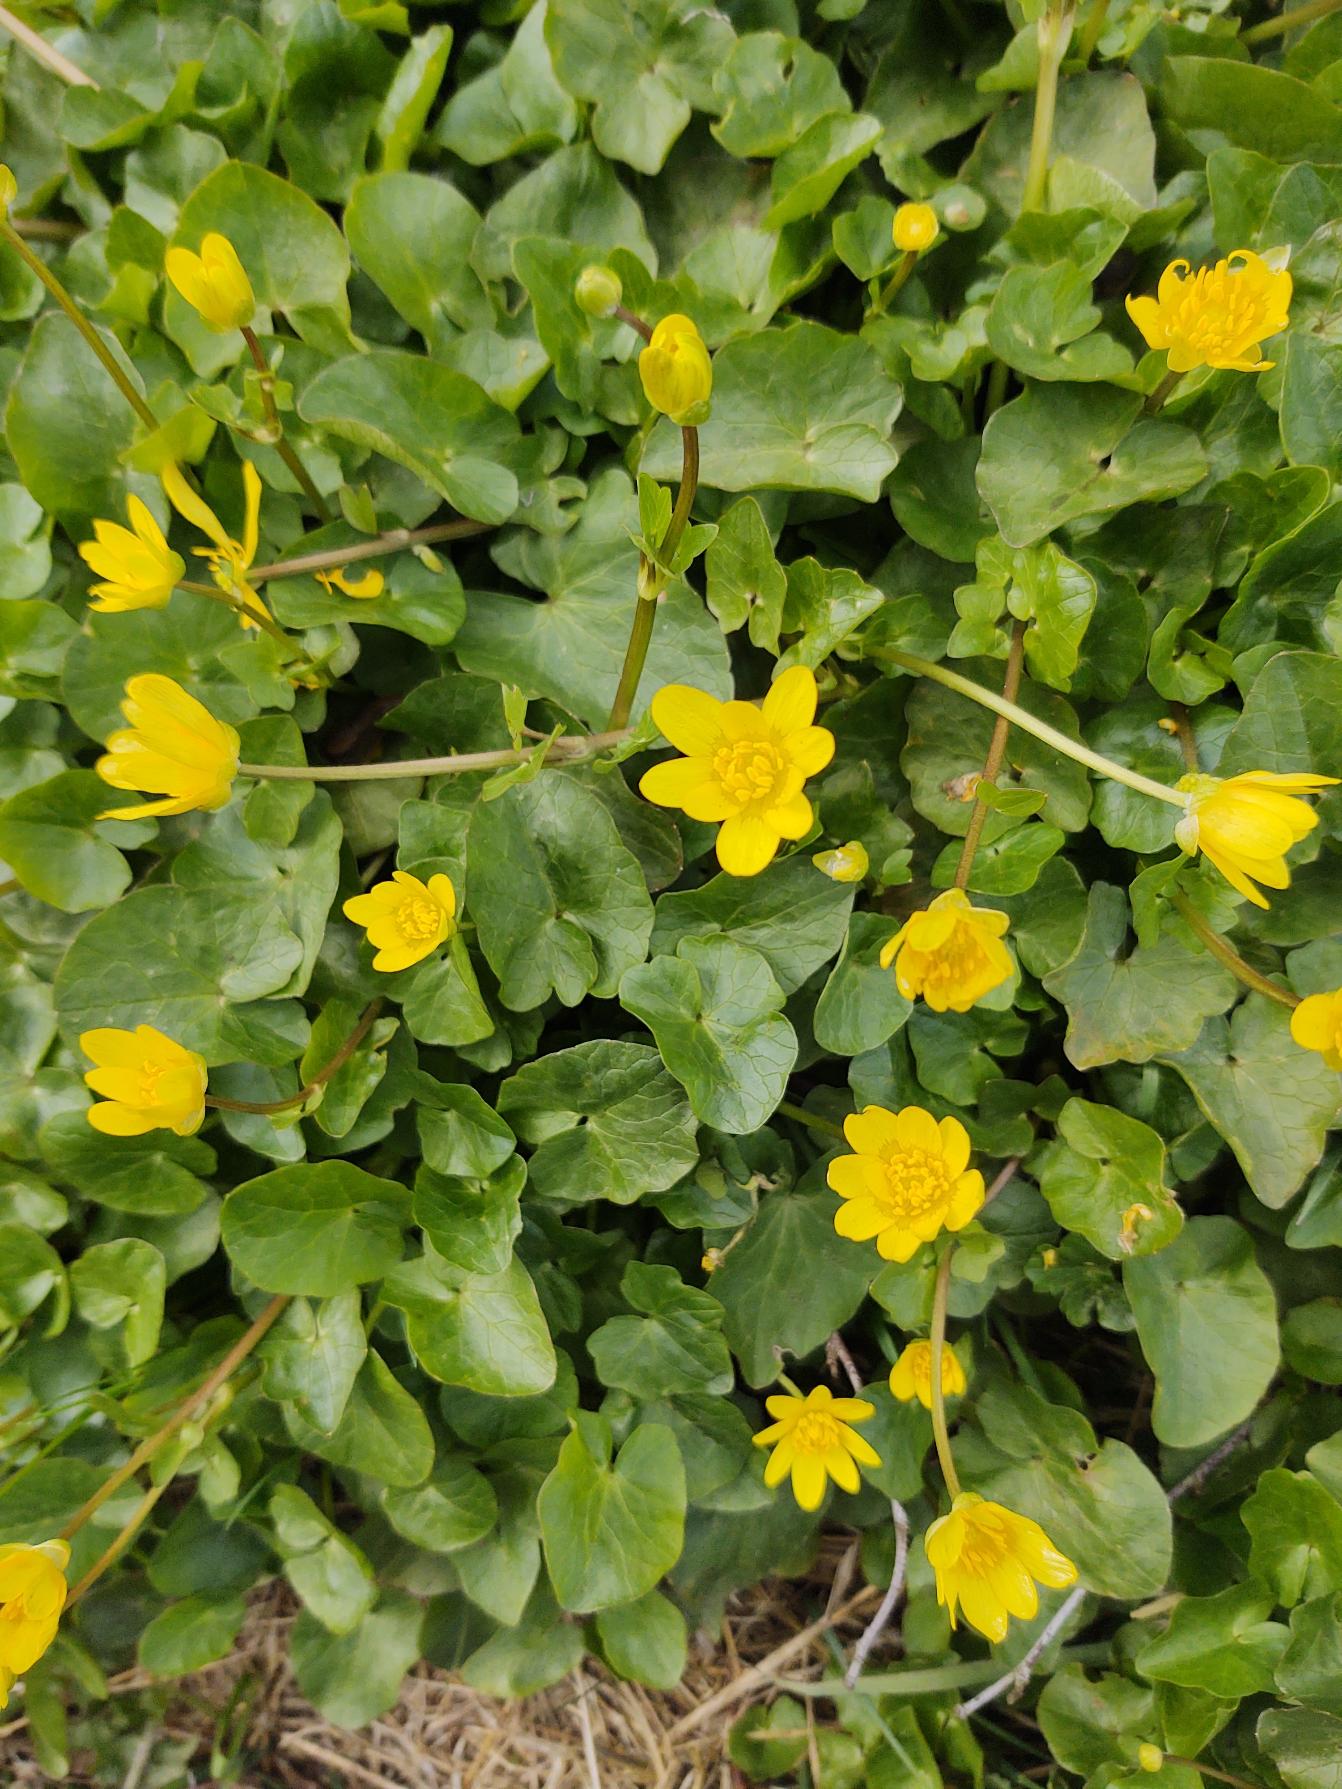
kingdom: Plantae
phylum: Tracheophyta
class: Magnoliopsida
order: Ranunculales
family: Ranunculaceae
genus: Ficaria
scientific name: Ficaria verna
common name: Vorterod
